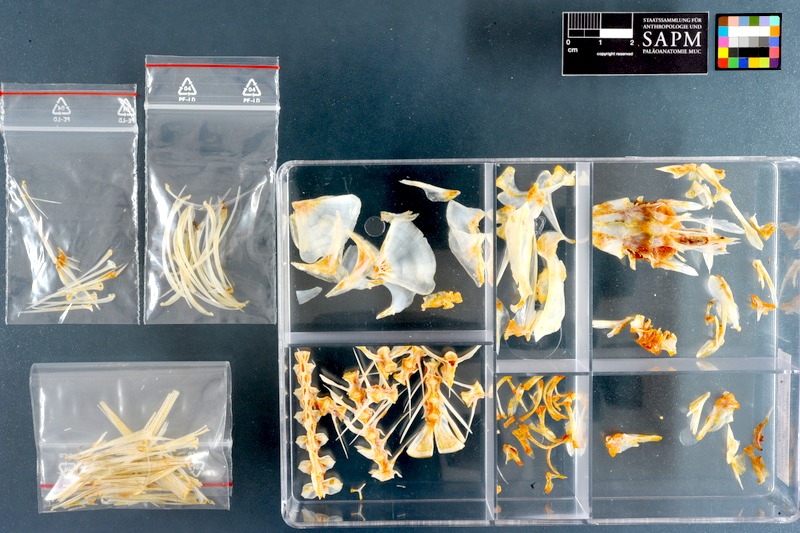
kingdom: Animalia
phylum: Chordata
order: Mugiliformes
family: Mugilidae
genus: Mugil
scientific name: Mugil cephalus
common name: Grey mullet
